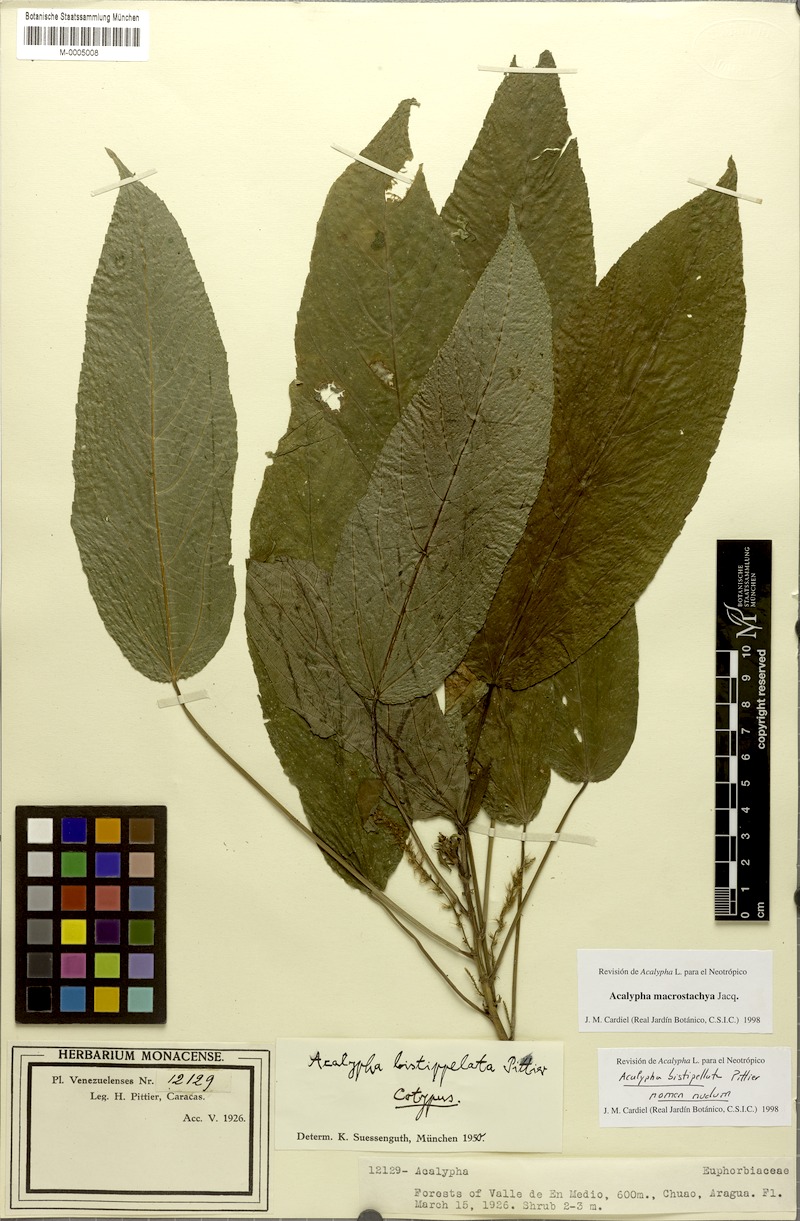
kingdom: Plantae
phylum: Tracheophyta
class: Magnoliopsida
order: Malpighiales
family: Euphorbiaceae
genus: Acalypha
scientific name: Acalypha macrostachya
